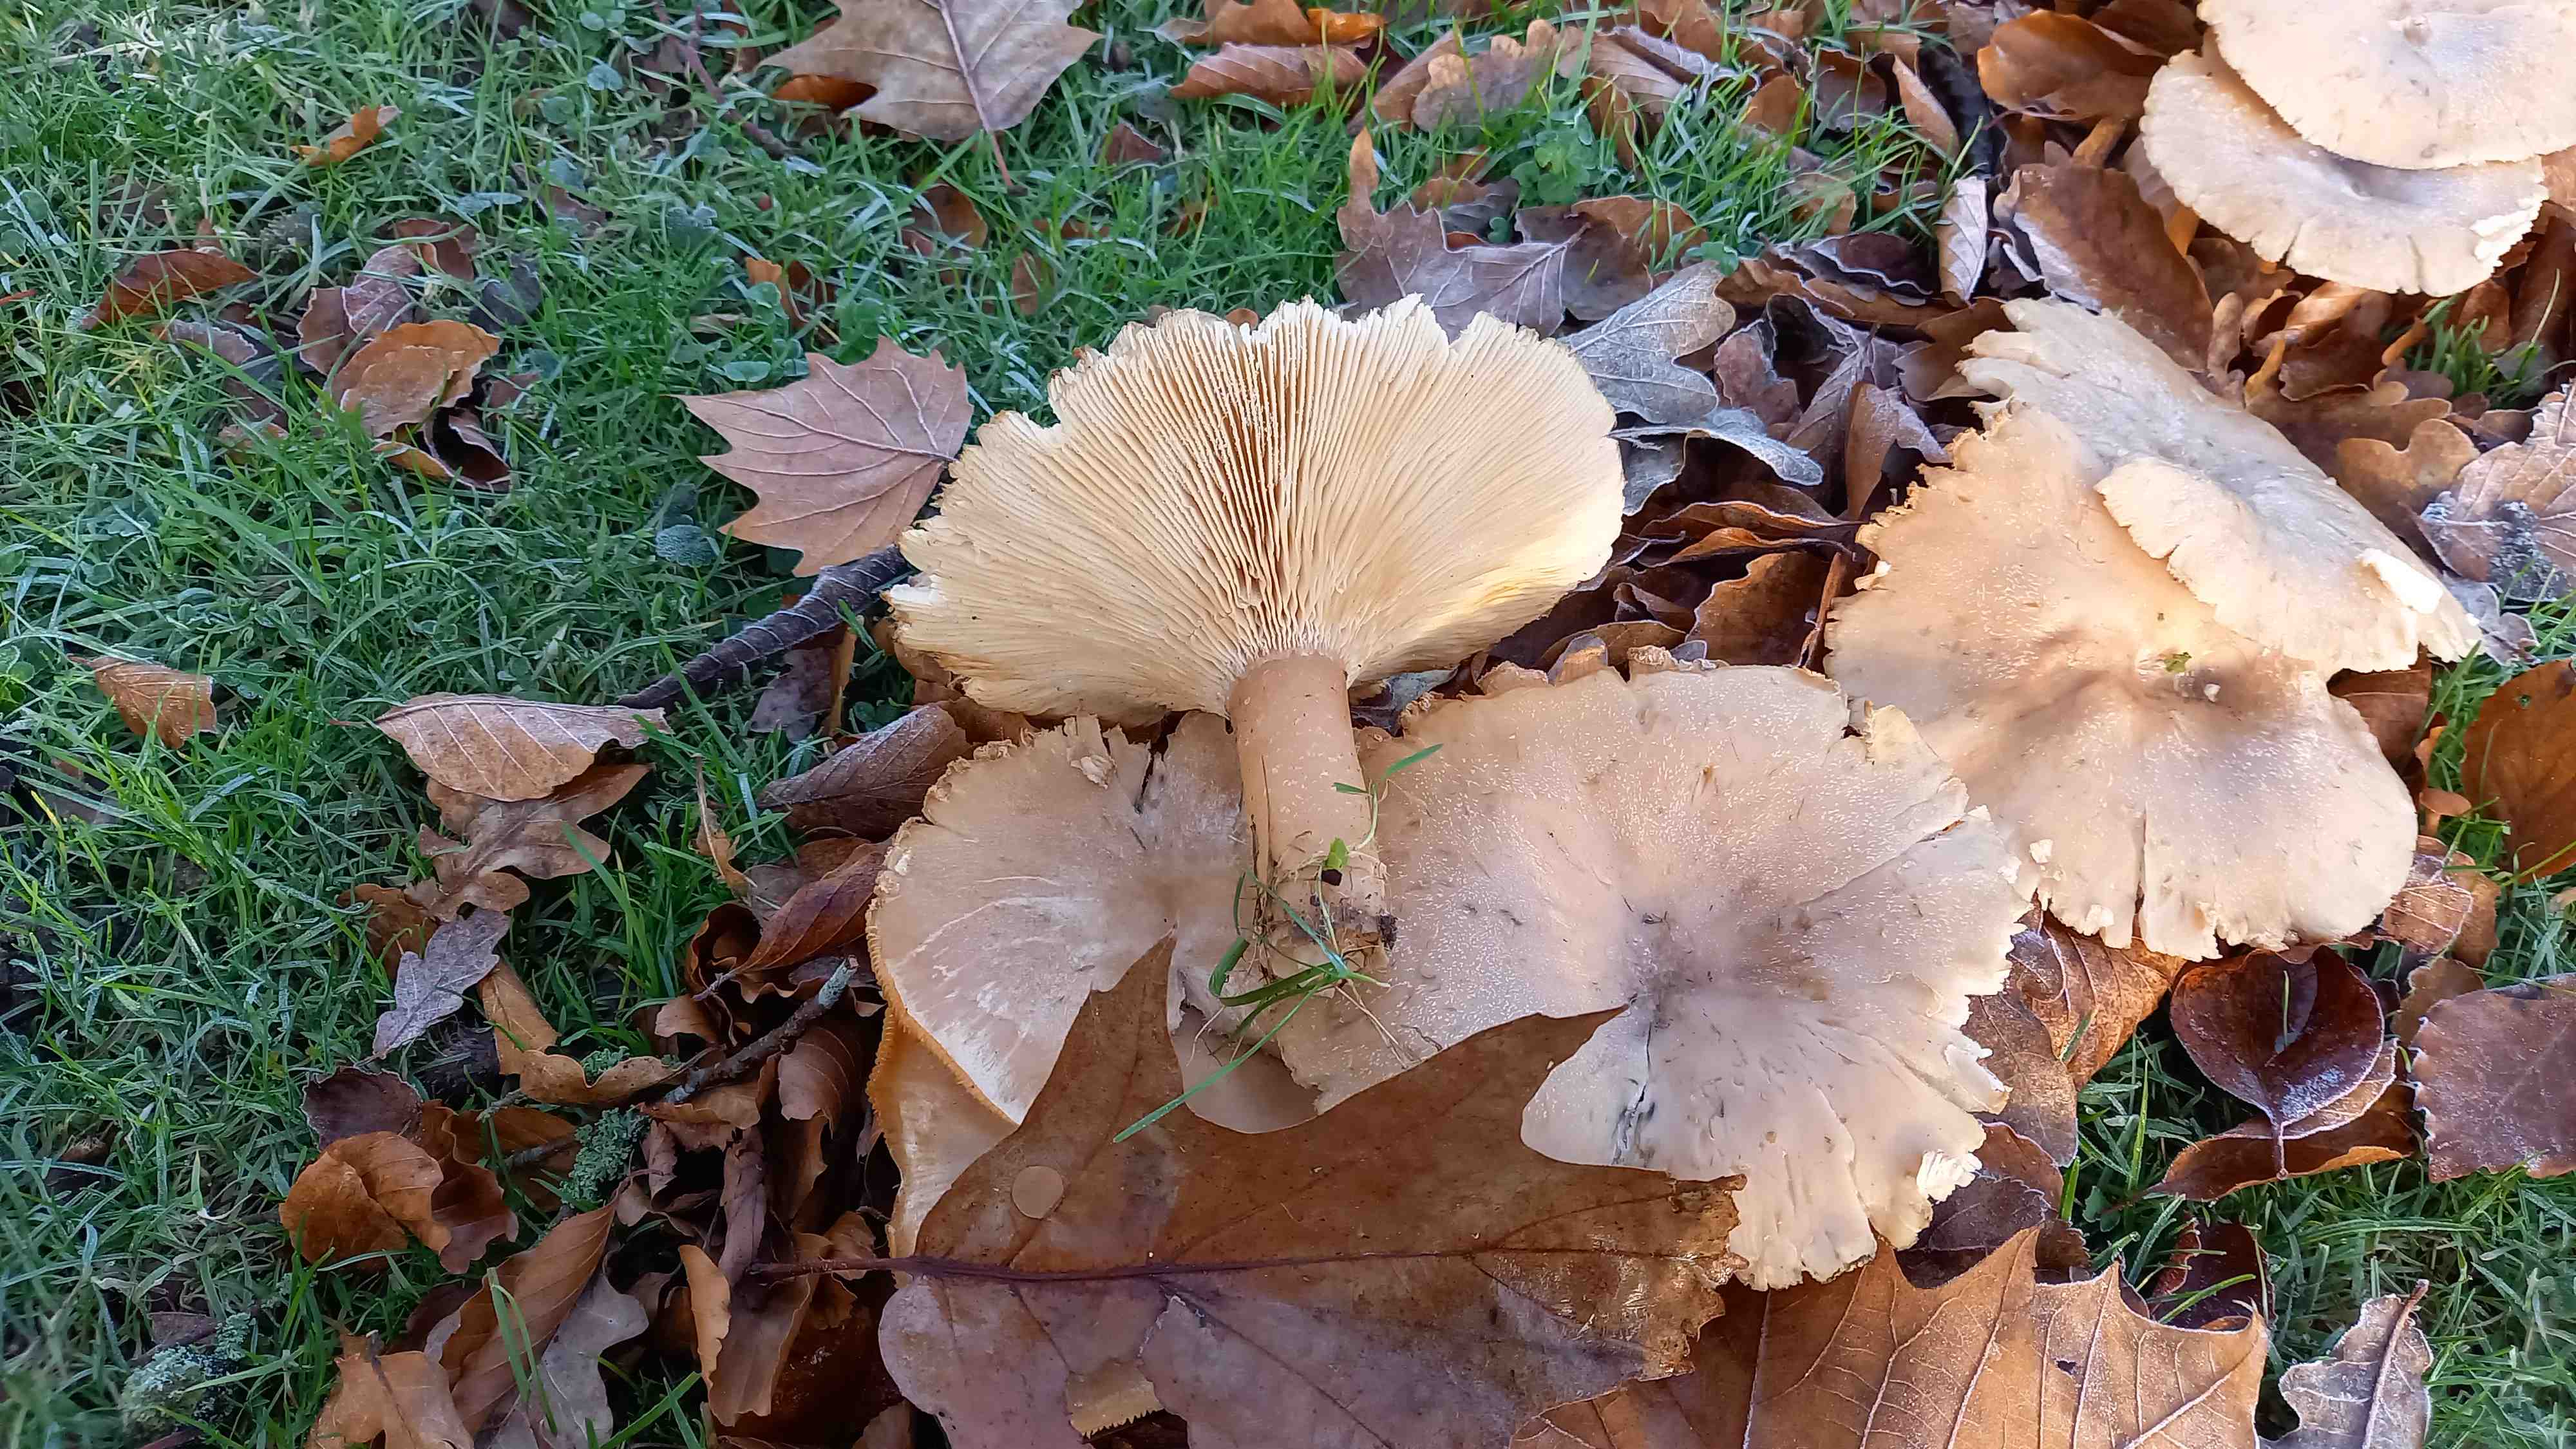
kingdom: Fungi
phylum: Basidiomycota
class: Agaricomycetes
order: Agaricales
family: Tricholomataceae
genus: Infundibulicybe
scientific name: Infundibulicybe geotropa
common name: stor tragthat
